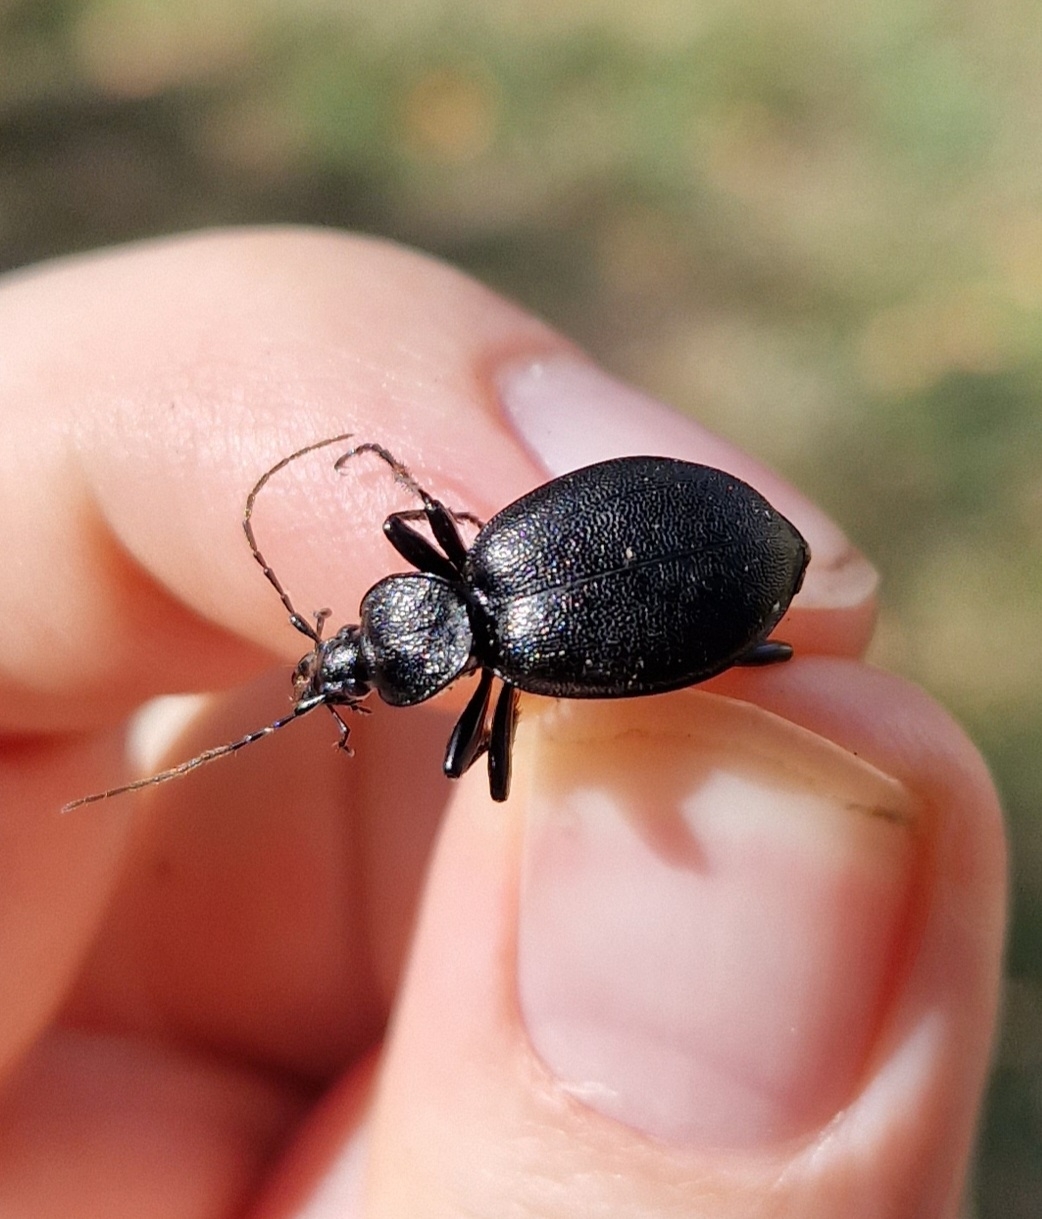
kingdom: Animalia
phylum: Arthropoda
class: Insecta
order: Coleoptera
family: Carabidae
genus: Cychrus
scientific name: Cychrus caraboides
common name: Sneglerøver
